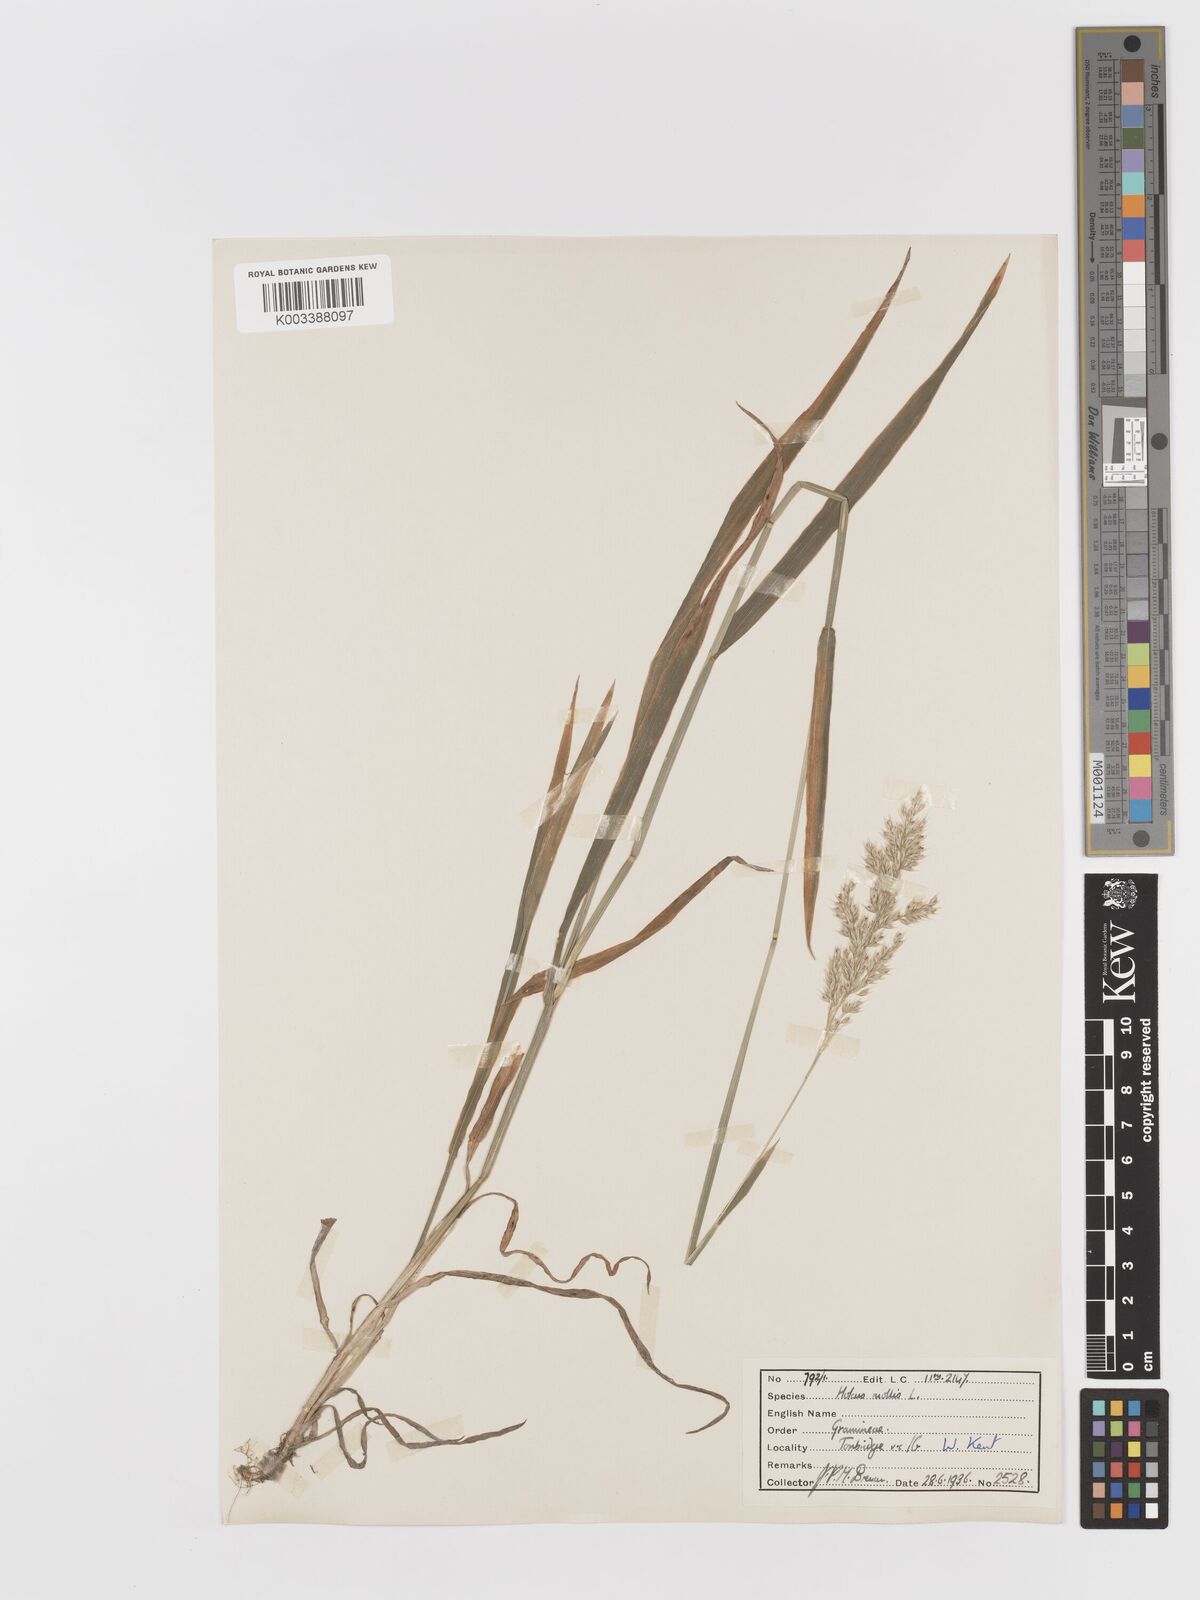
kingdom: Plantae
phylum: Tracheophyta
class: Liliopsida
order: Poales
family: Poaceae
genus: Holcus
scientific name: Holcus mollis
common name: Creeping velvetgrass
